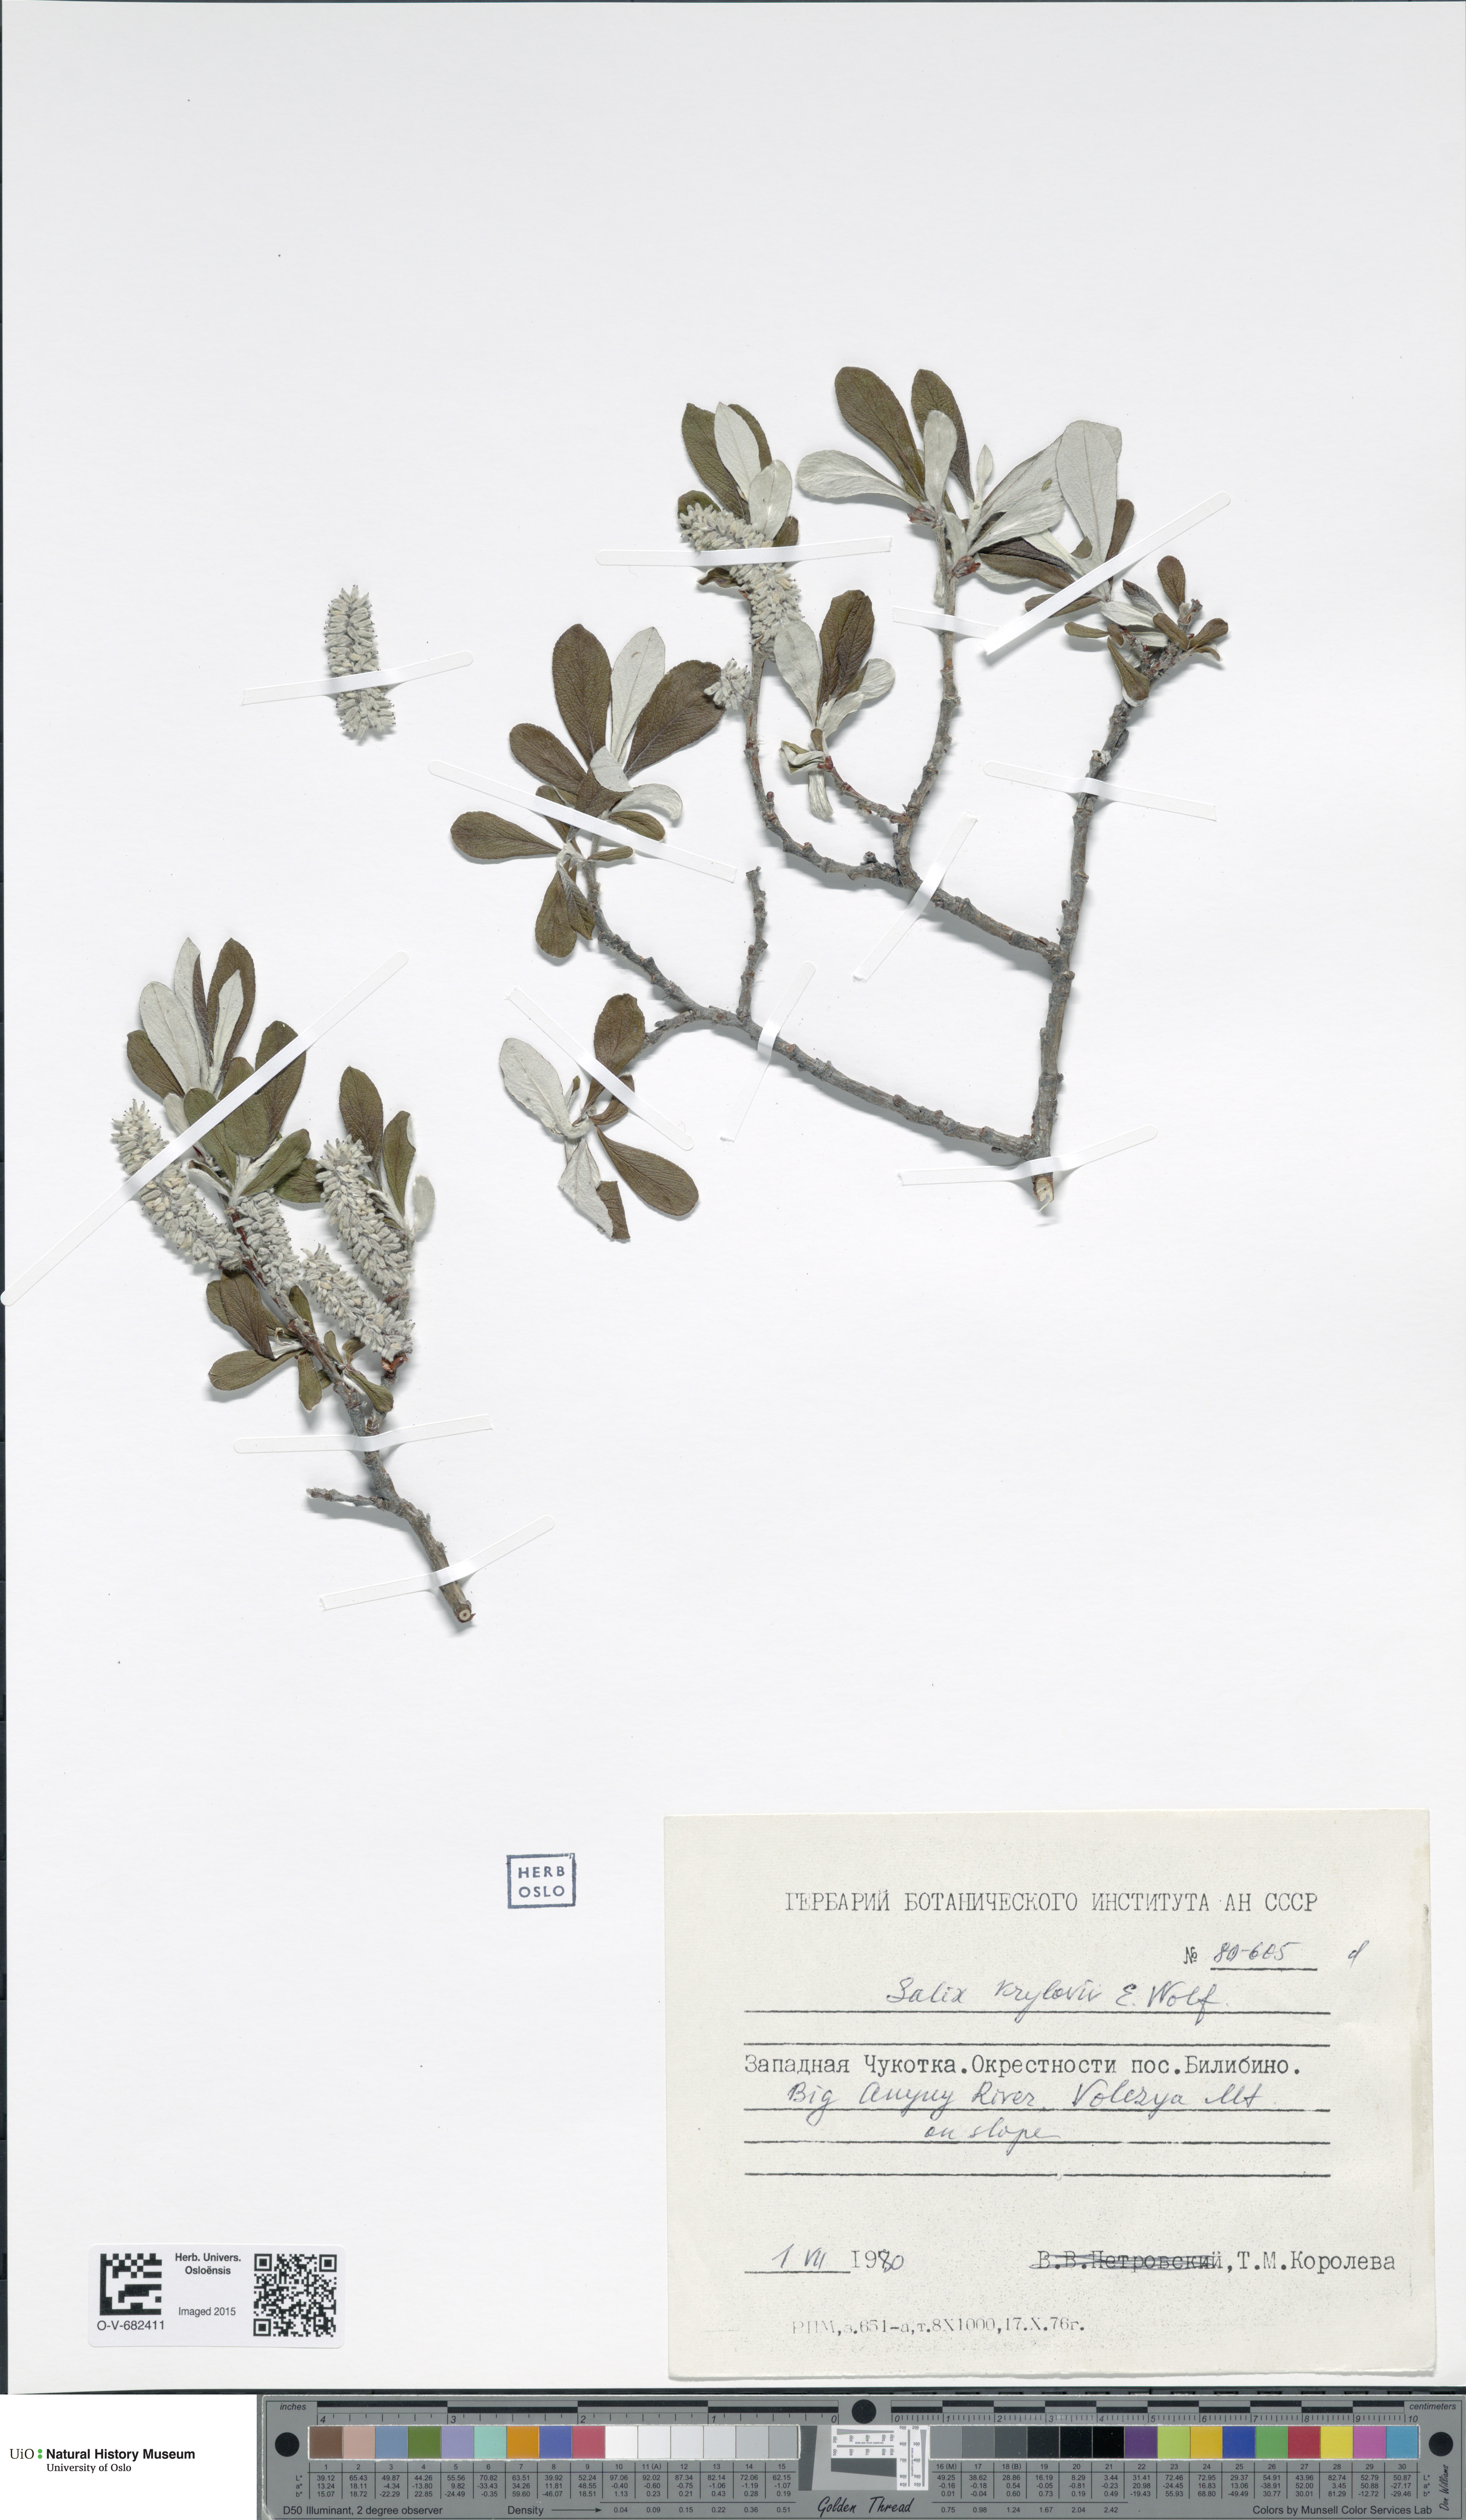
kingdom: Plantae
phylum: Tracheophyta
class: Magnoliopsida
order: Malpighiales
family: Salicaceae
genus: Salix
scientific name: Salix krylovii
